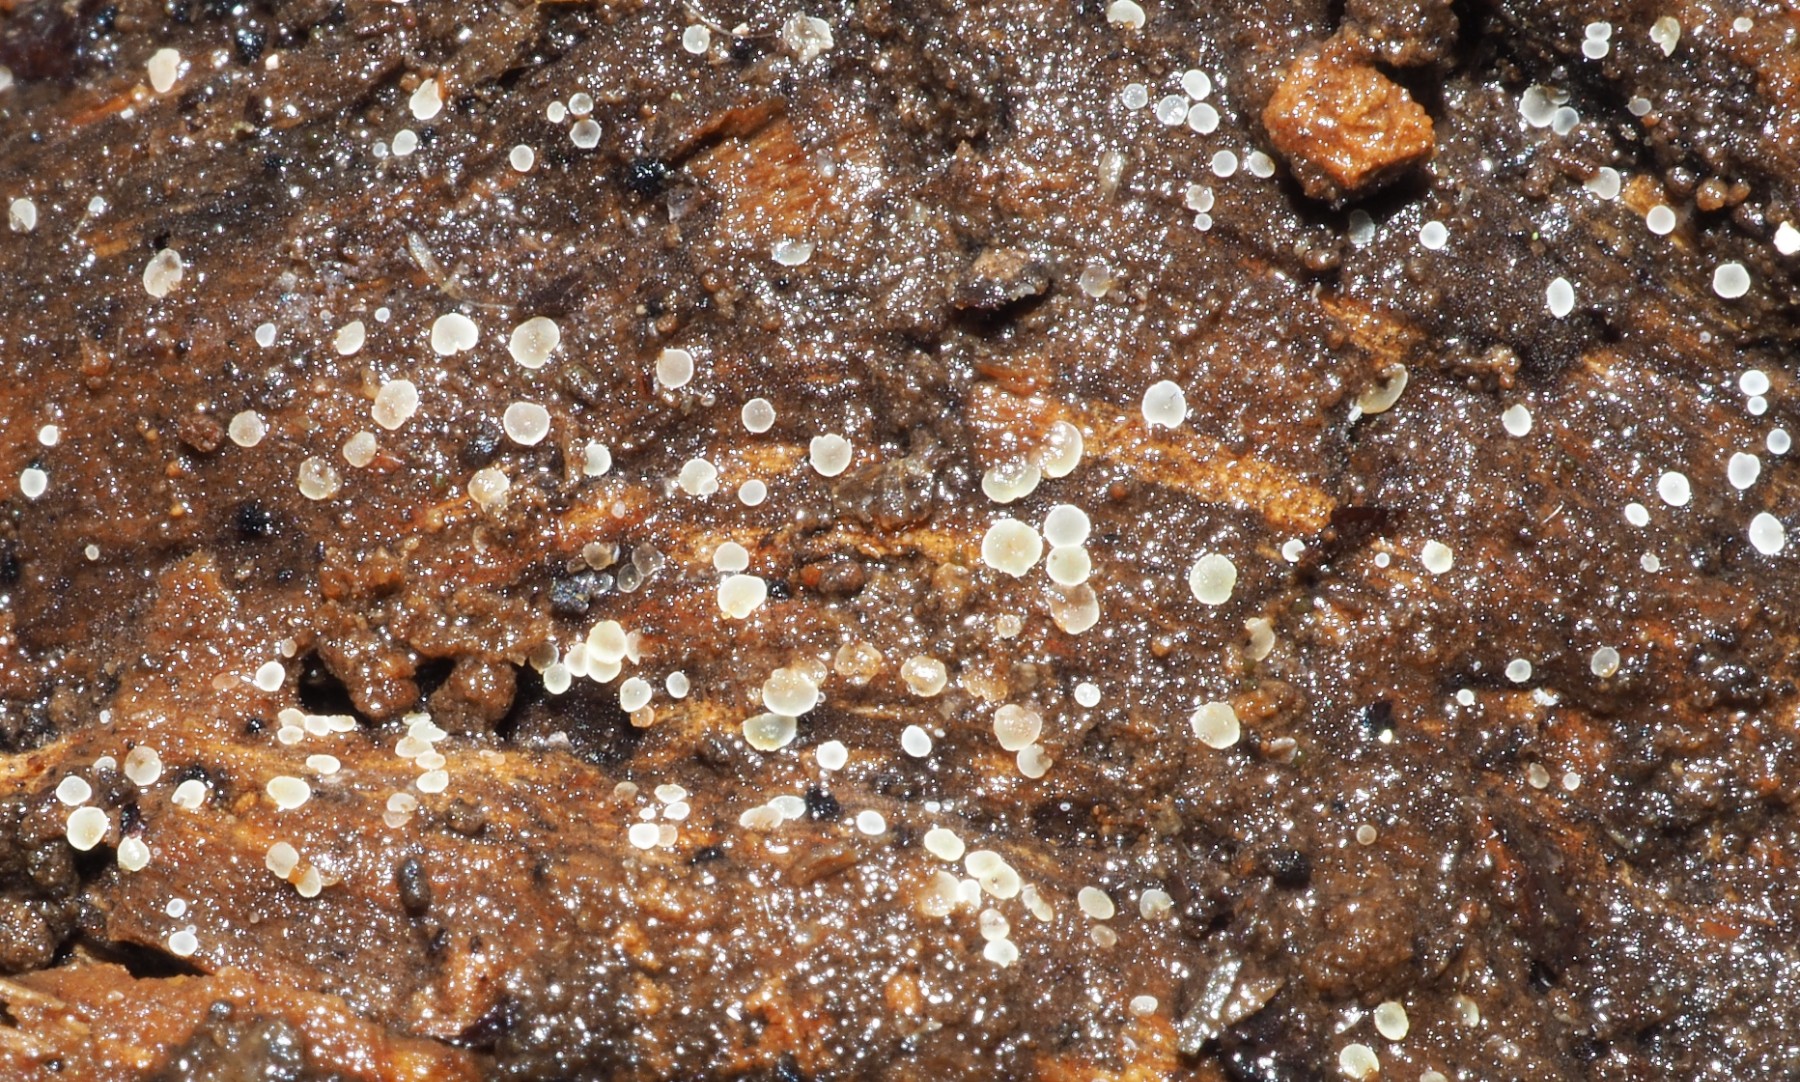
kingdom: Fungi
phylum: Ascomycota
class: Leotiomycetes
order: Helotiales
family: Hyaloscyphaceae
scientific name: Hyaloscyphaceae
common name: frynseskivefamilien
